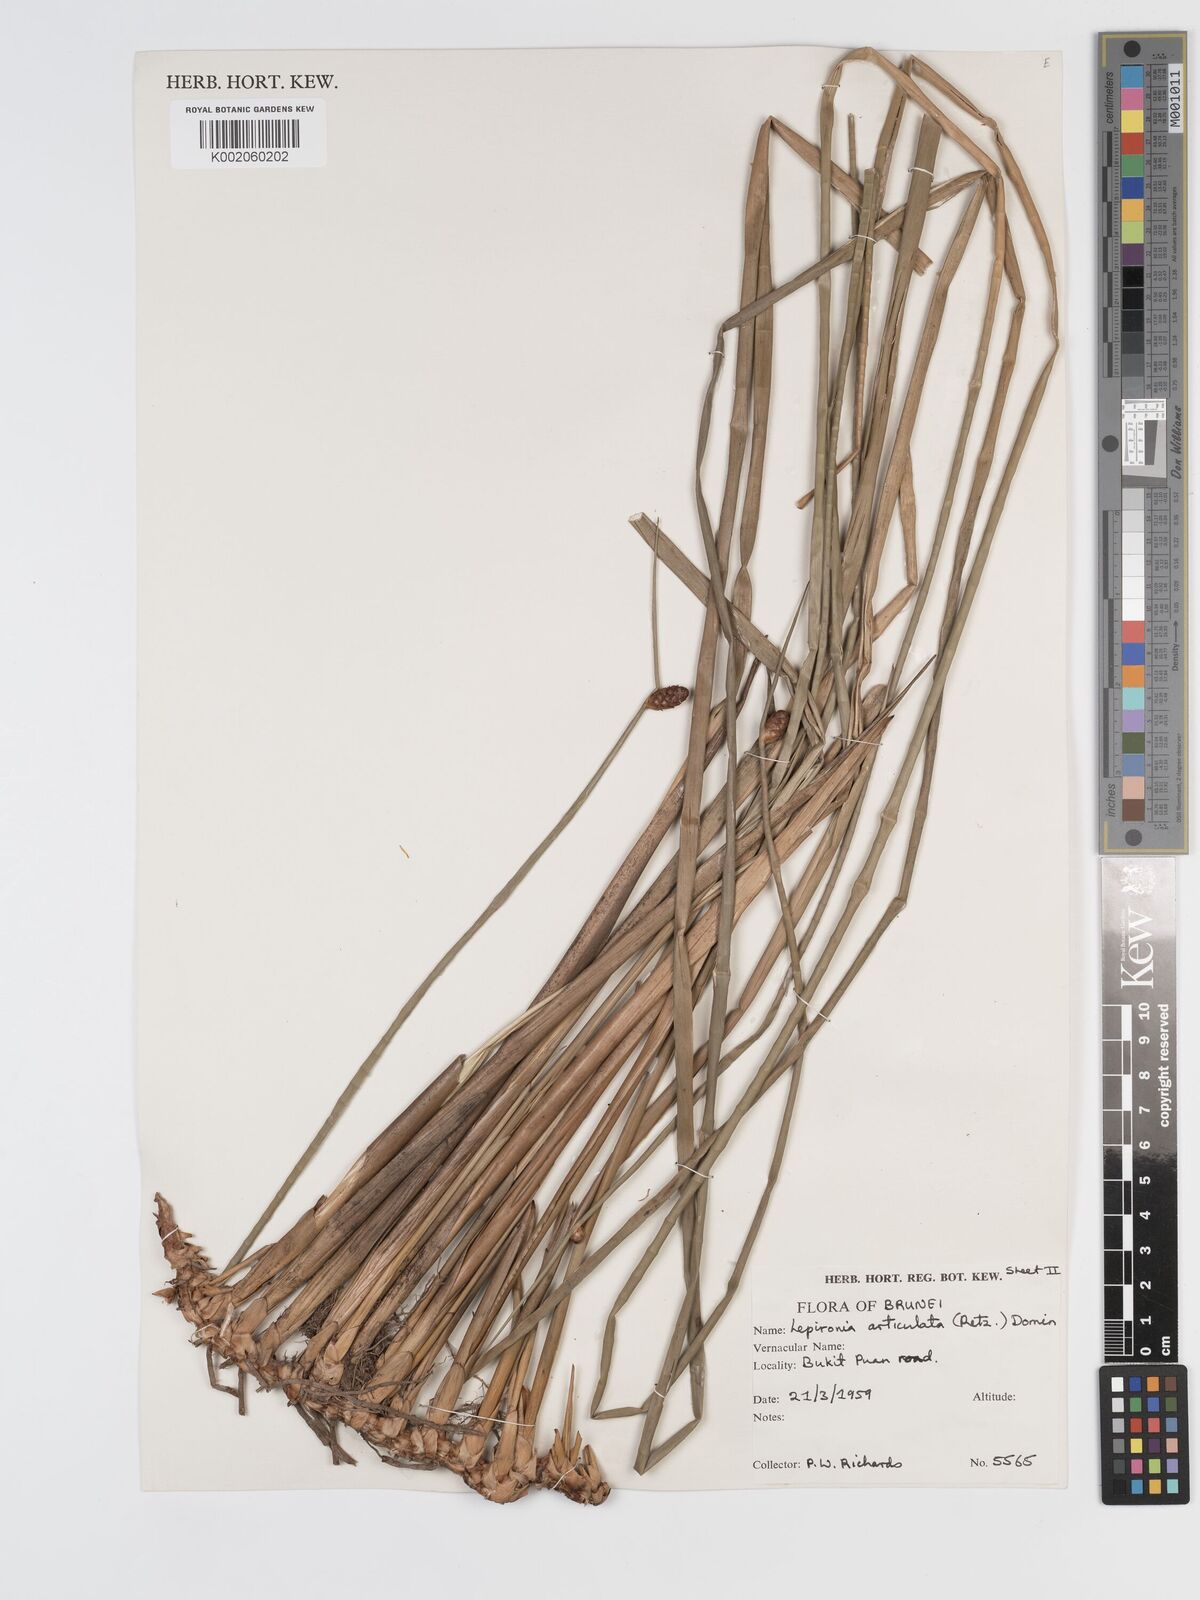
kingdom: Plantae
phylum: Tracheophyta
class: Liliopsida
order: Poales
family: Cyperaceae
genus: Lepironia
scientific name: Lepironia articulata
